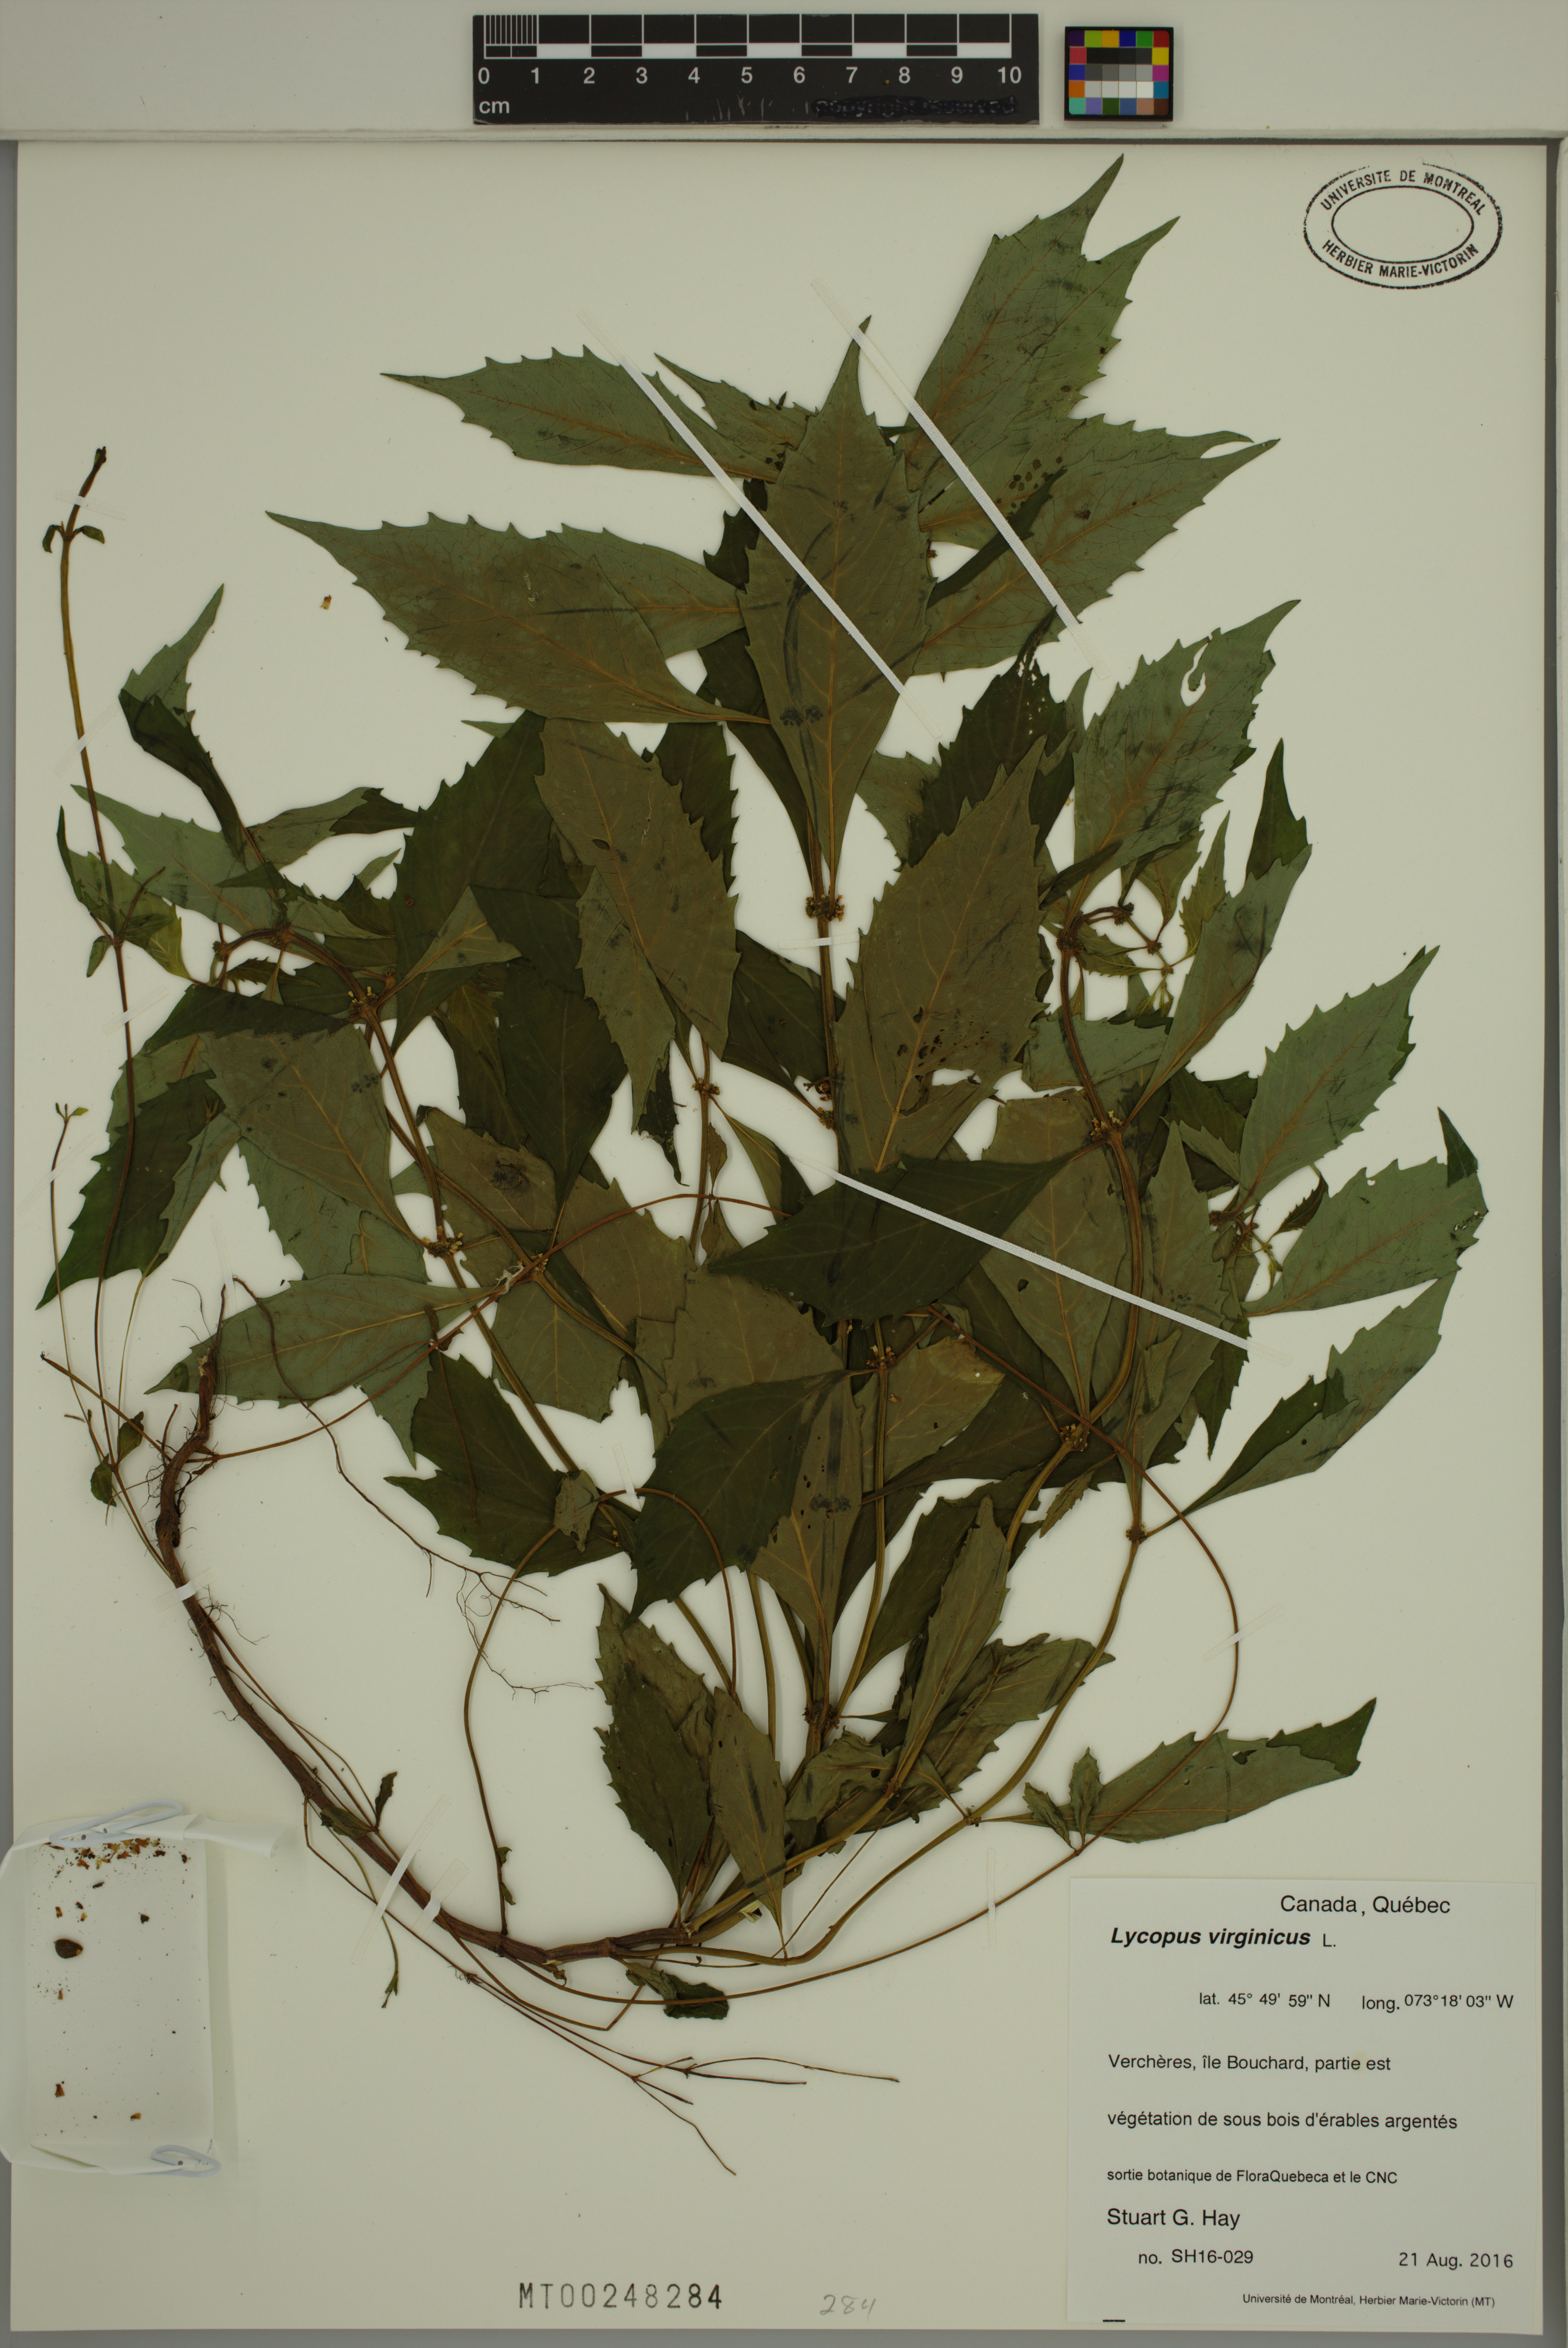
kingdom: Plantae
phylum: Tracheophyta
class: Magnoliopsida
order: Lamiales
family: Lamiaceae
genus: Lycopus
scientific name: Lycopus virginicus
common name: Bugleweed
